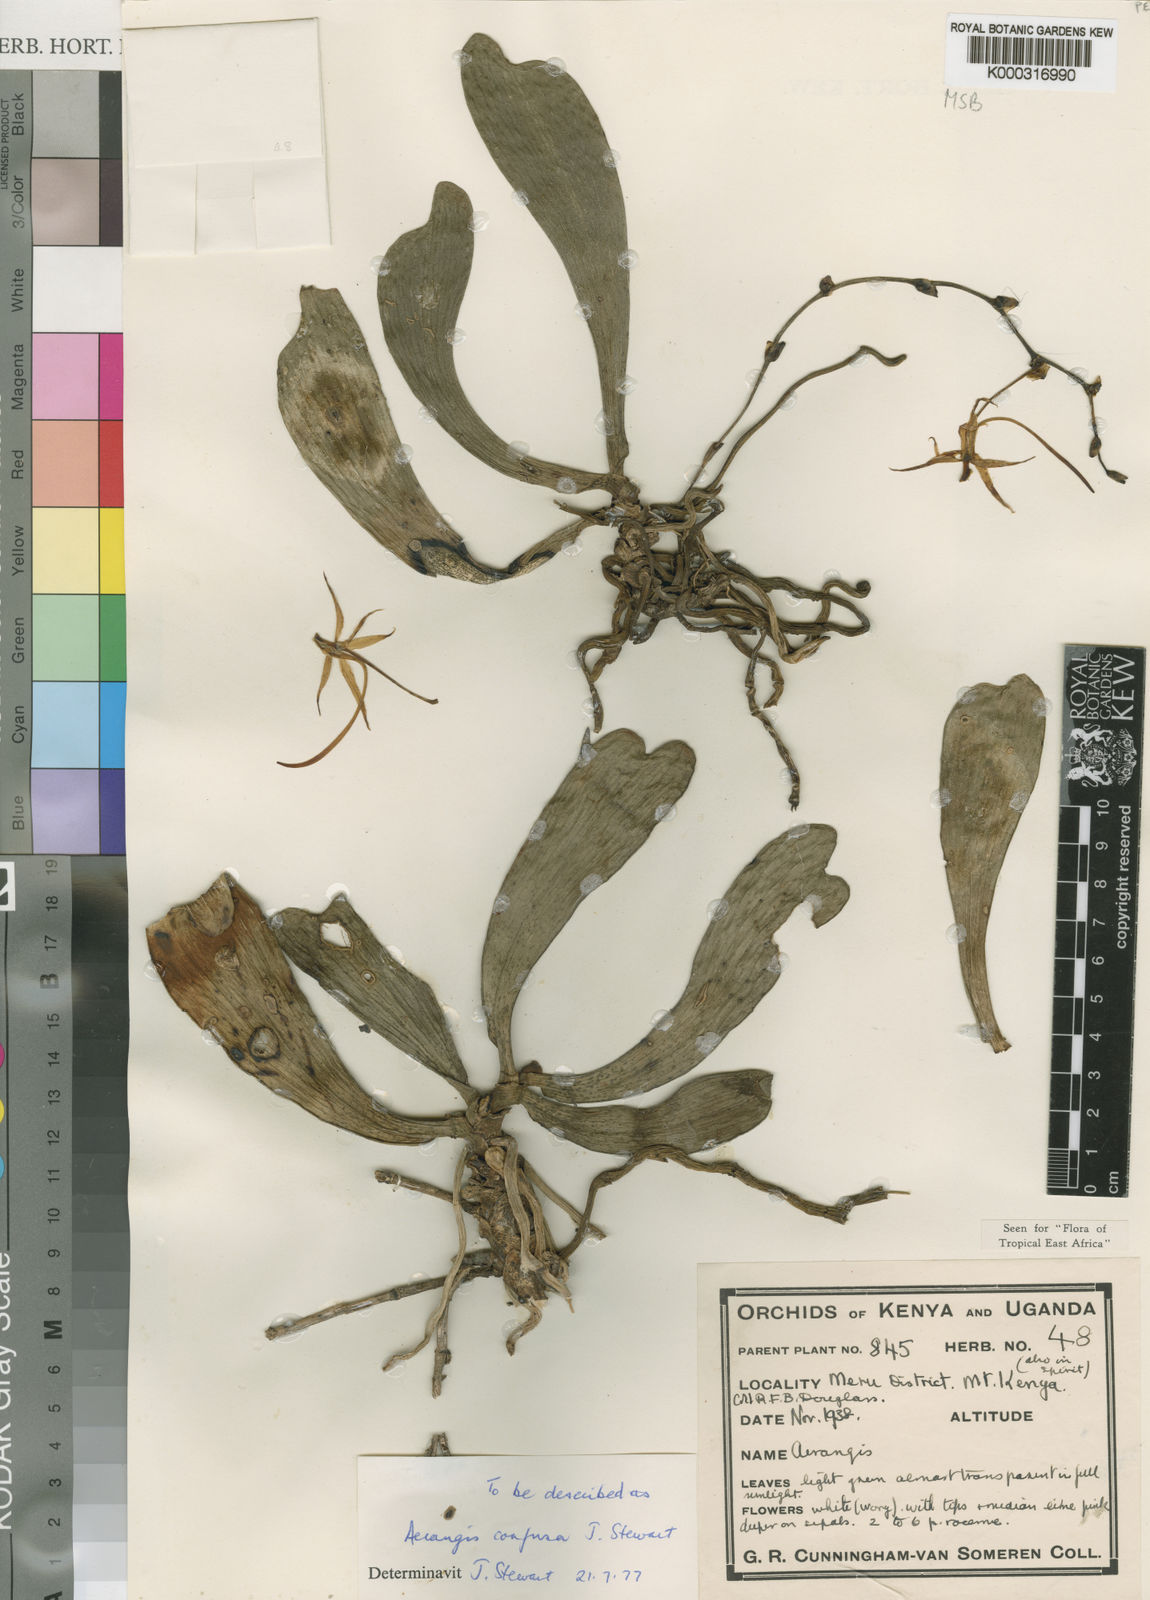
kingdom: Plantae
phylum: Tracheophyta
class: Liliopsida
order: Asparagales
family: Orchidaceae
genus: Aerangis
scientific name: Aerangis confusa
